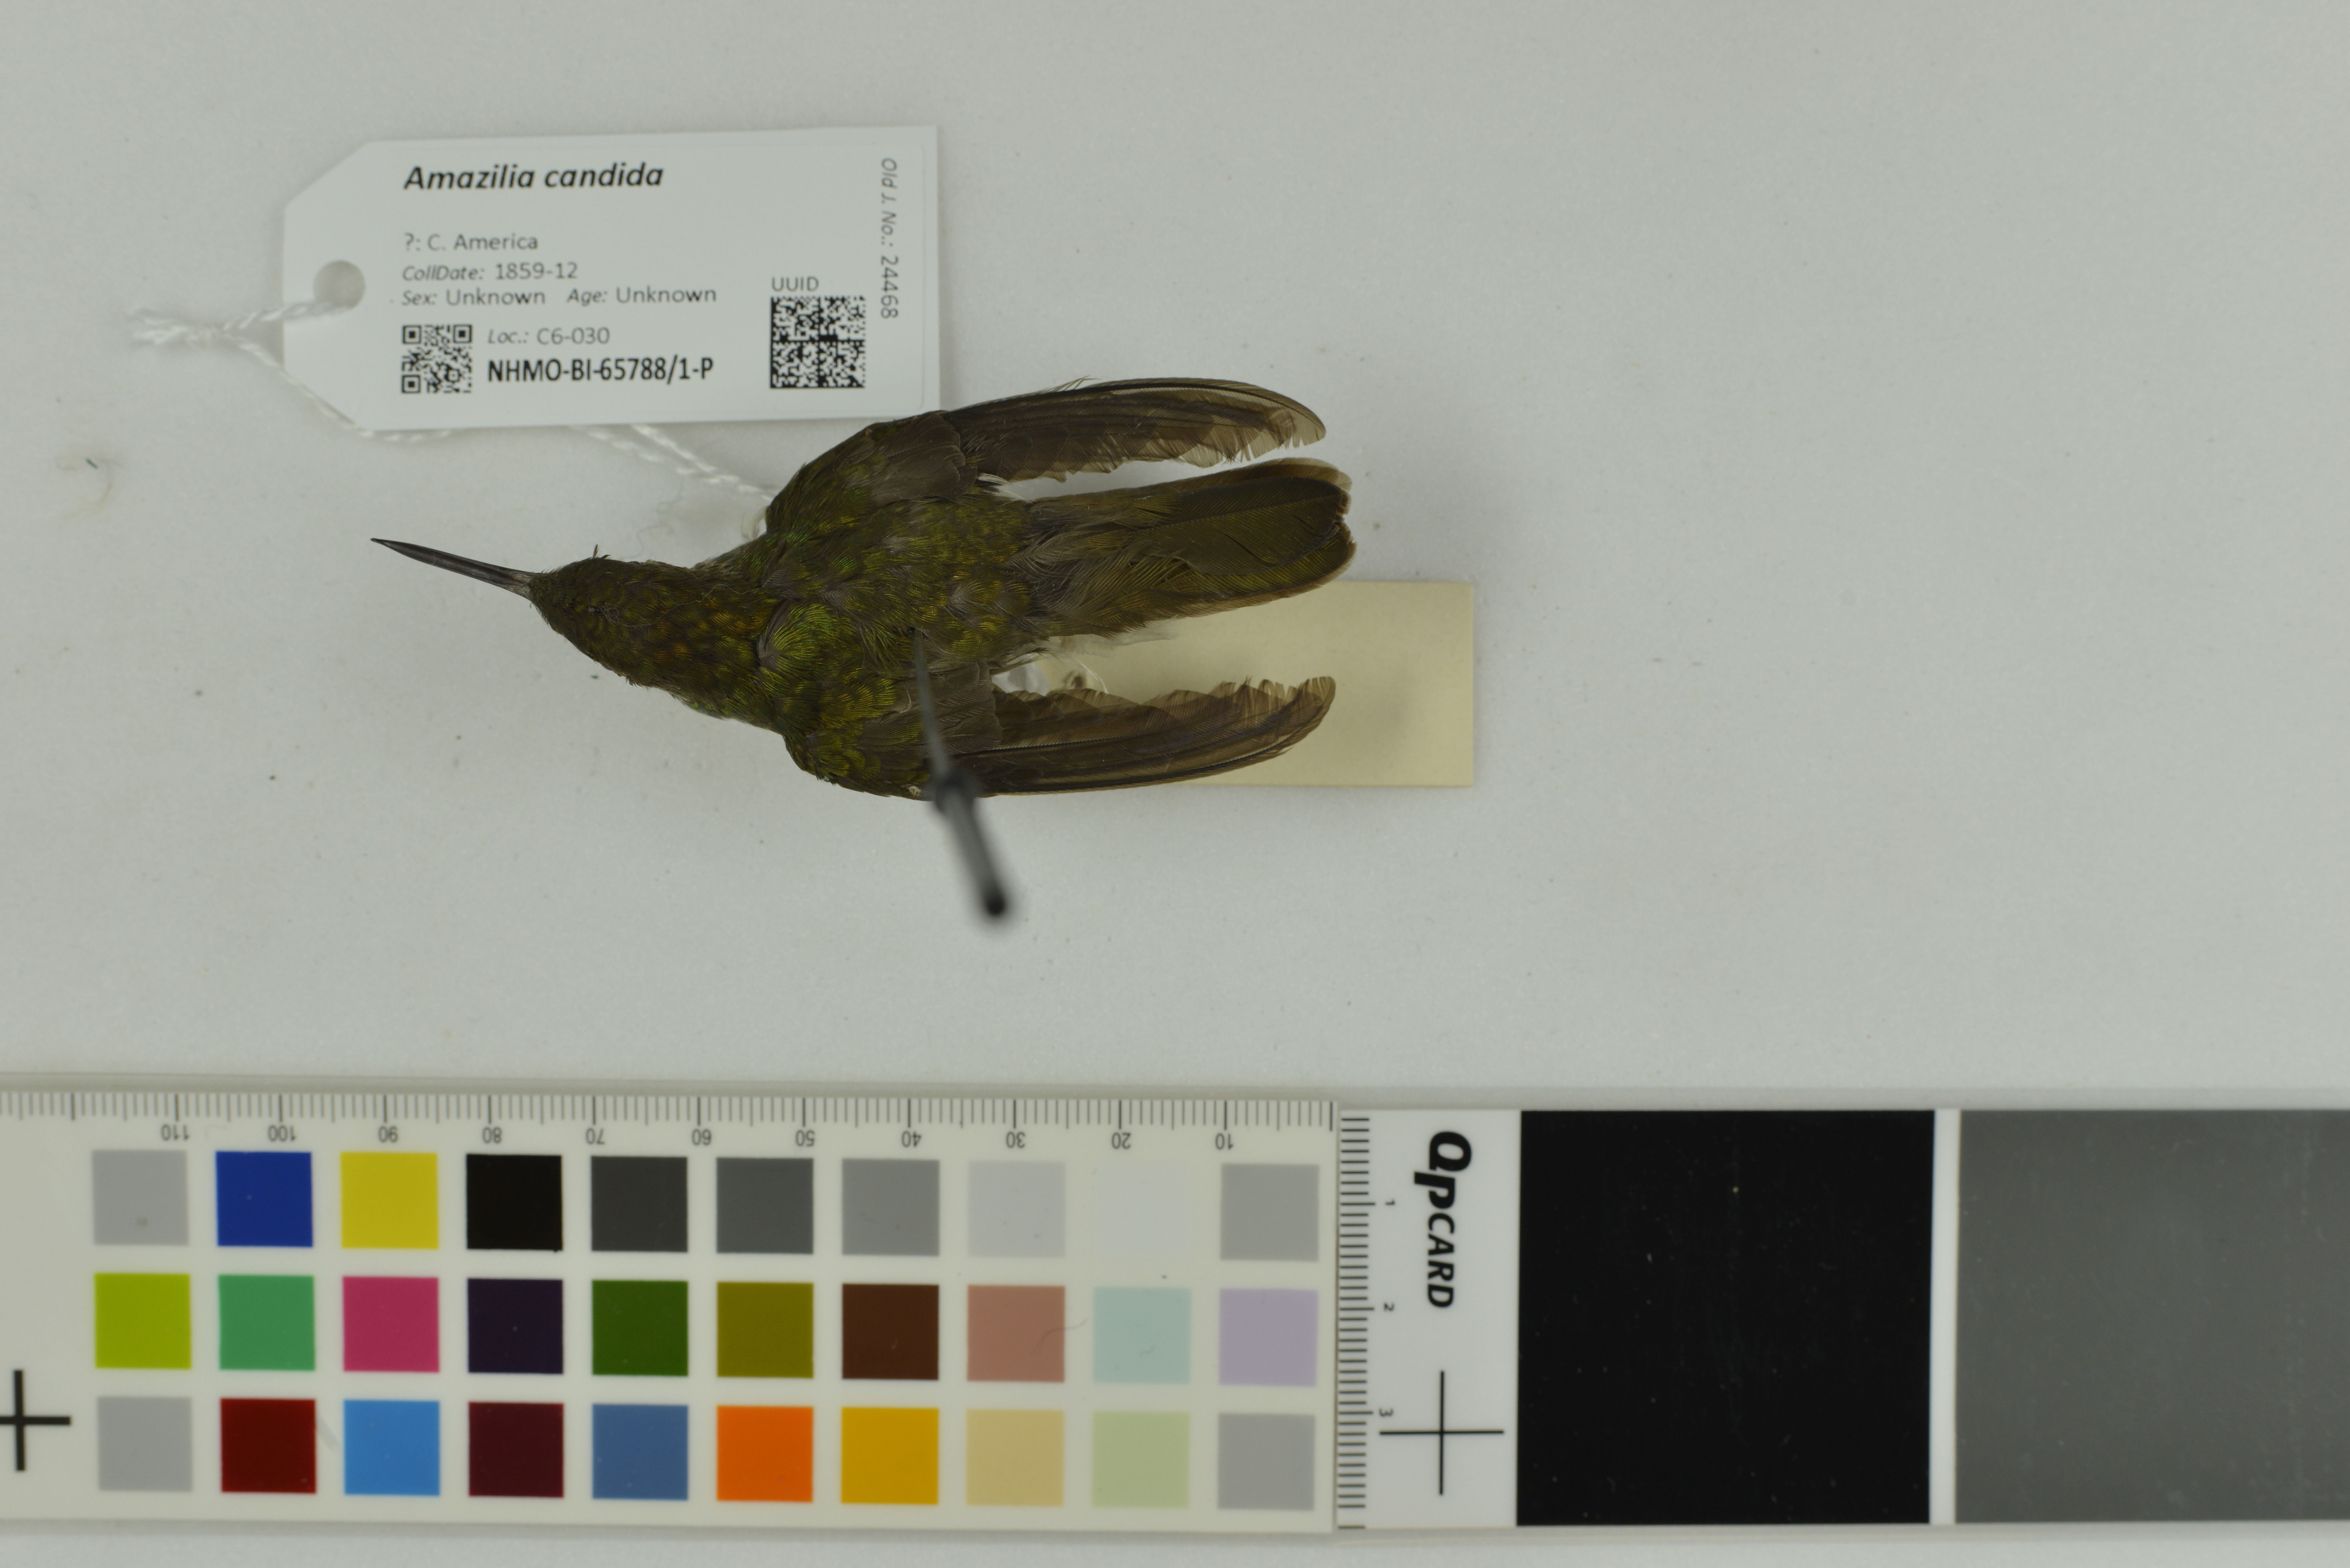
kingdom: Animalia
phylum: Chordata
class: Aves
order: Apodiformes
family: Trochilidae
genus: Chlorestes
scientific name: Chlorestes candida
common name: White-bellied emerald
